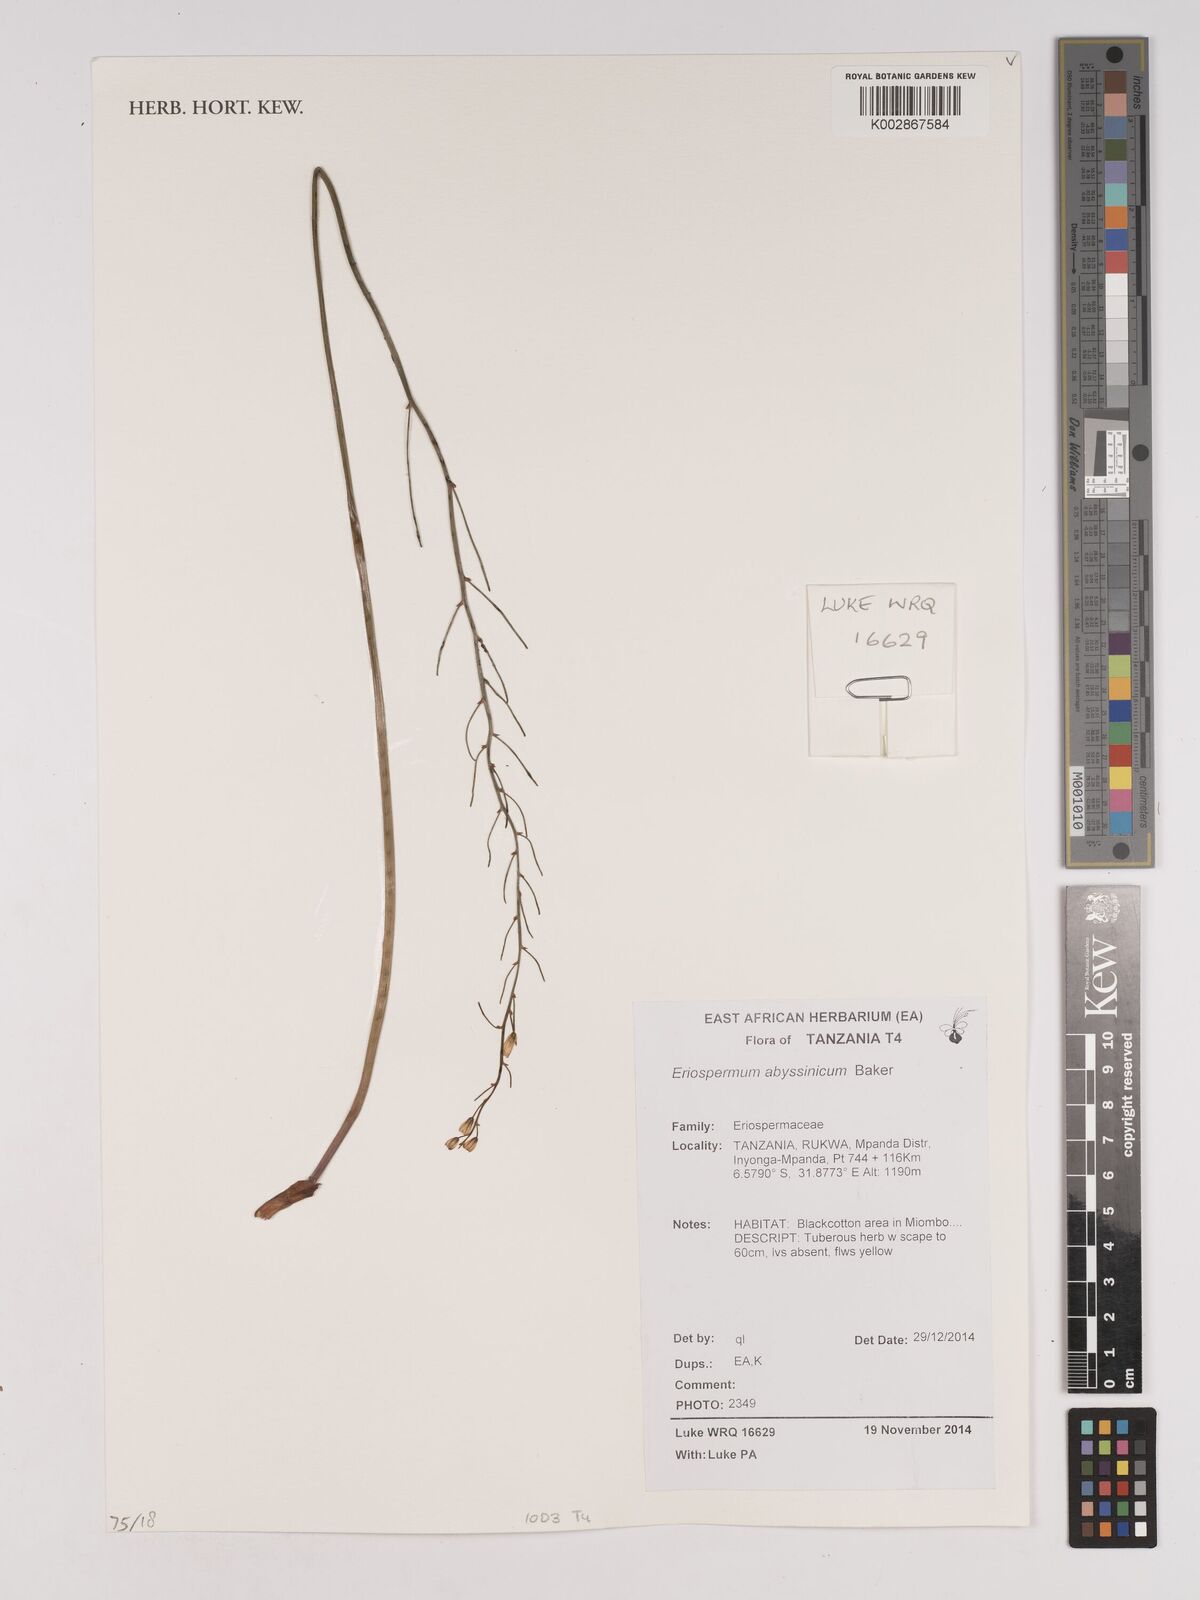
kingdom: Plantae
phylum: Tracheophyta
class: Liliopsida
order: Asparagales
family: Asparagaceae
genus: Eriospermum
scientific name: Eriospermum abyssinicum
